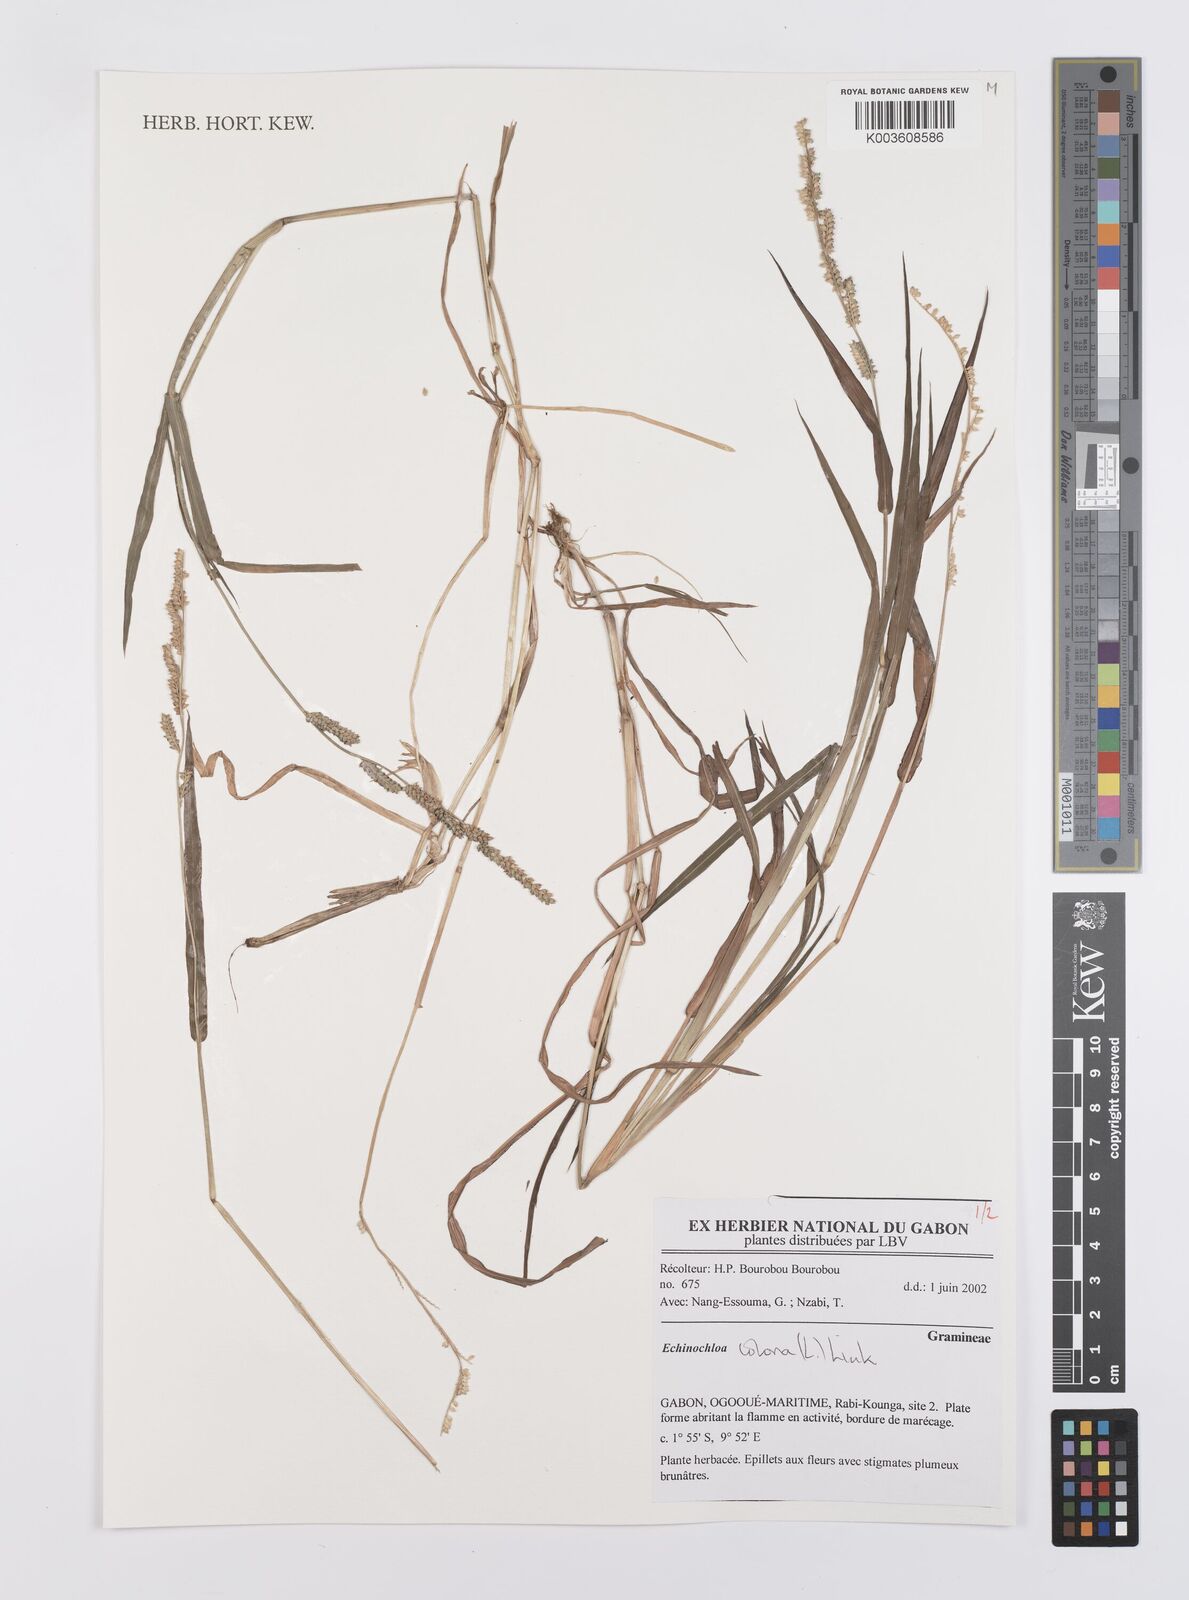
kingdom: Plantae
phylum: Tracheophyta
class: Liliopsida
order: Poales
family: Poaceae
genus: Echinochloa
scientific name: Echinochloa colonum
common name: Jungle rice
